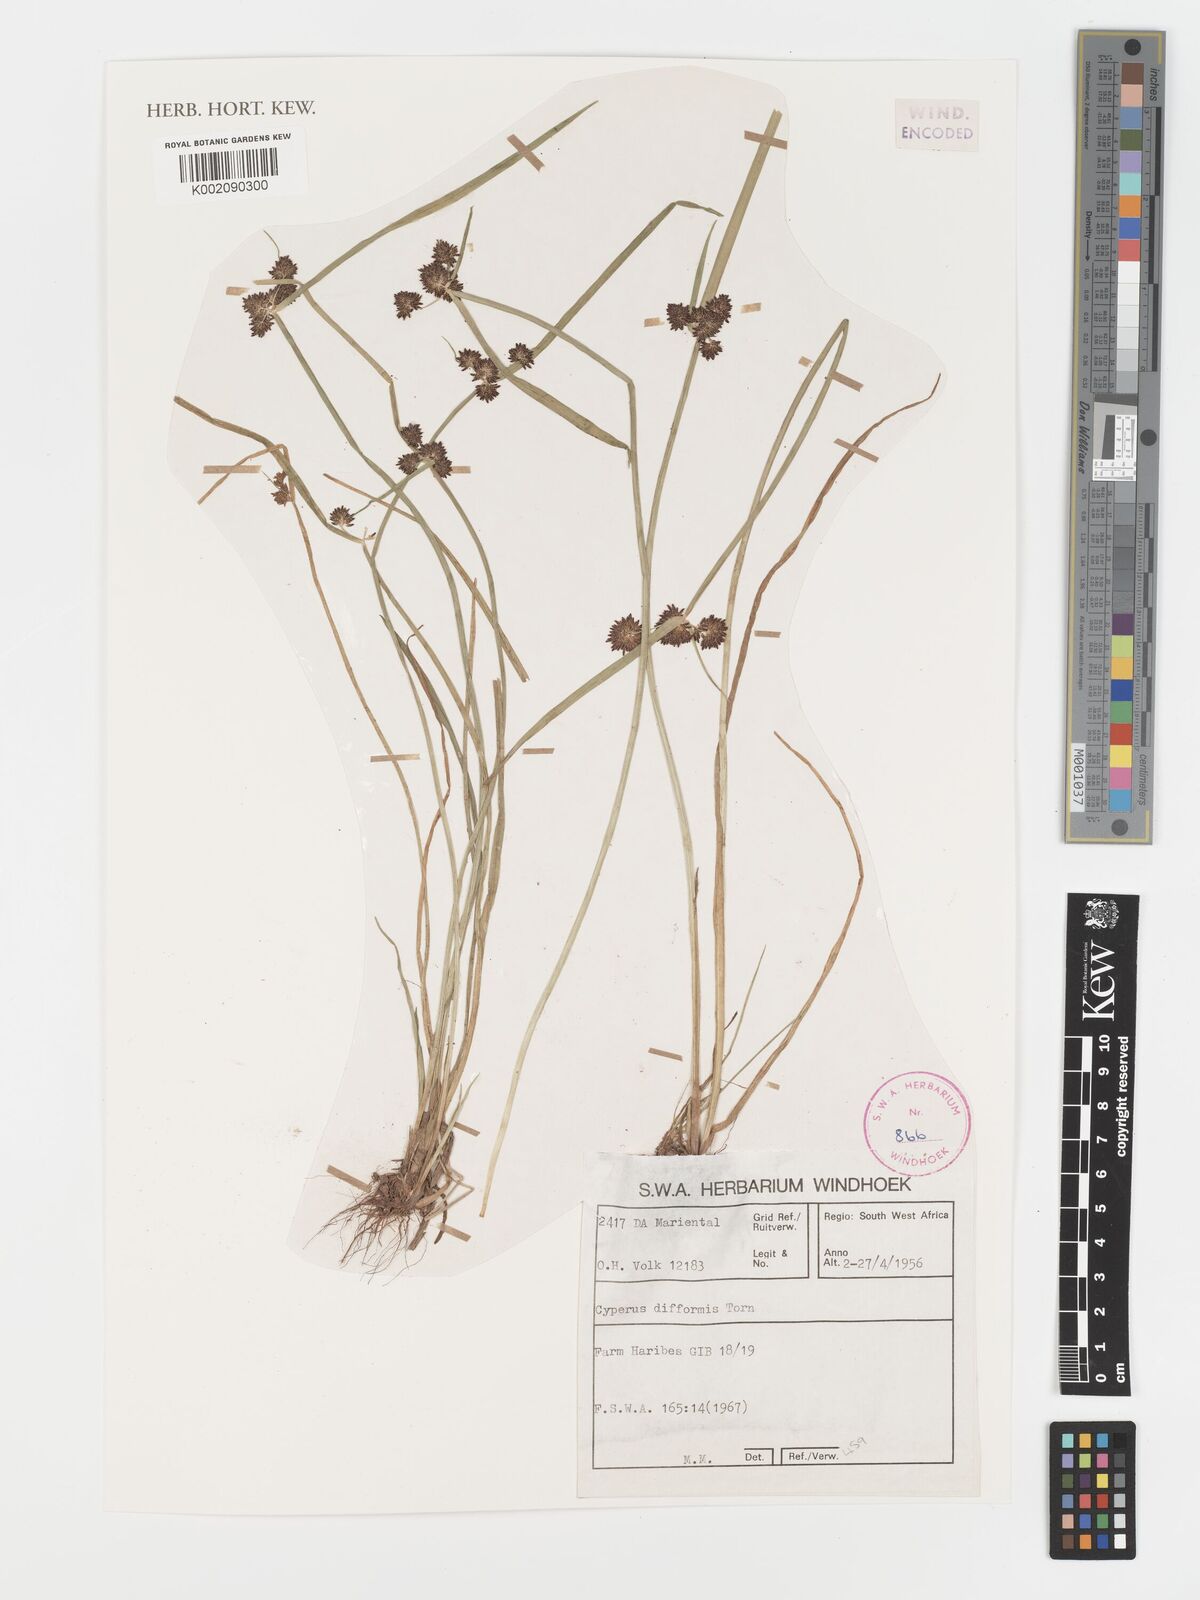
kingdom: Plantae
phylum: Tracheophyta
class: Liliopsida
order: Poales
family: Cyperaceae
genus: Cyperus
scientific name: Cyperus difformis
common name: Variable flatsedge
